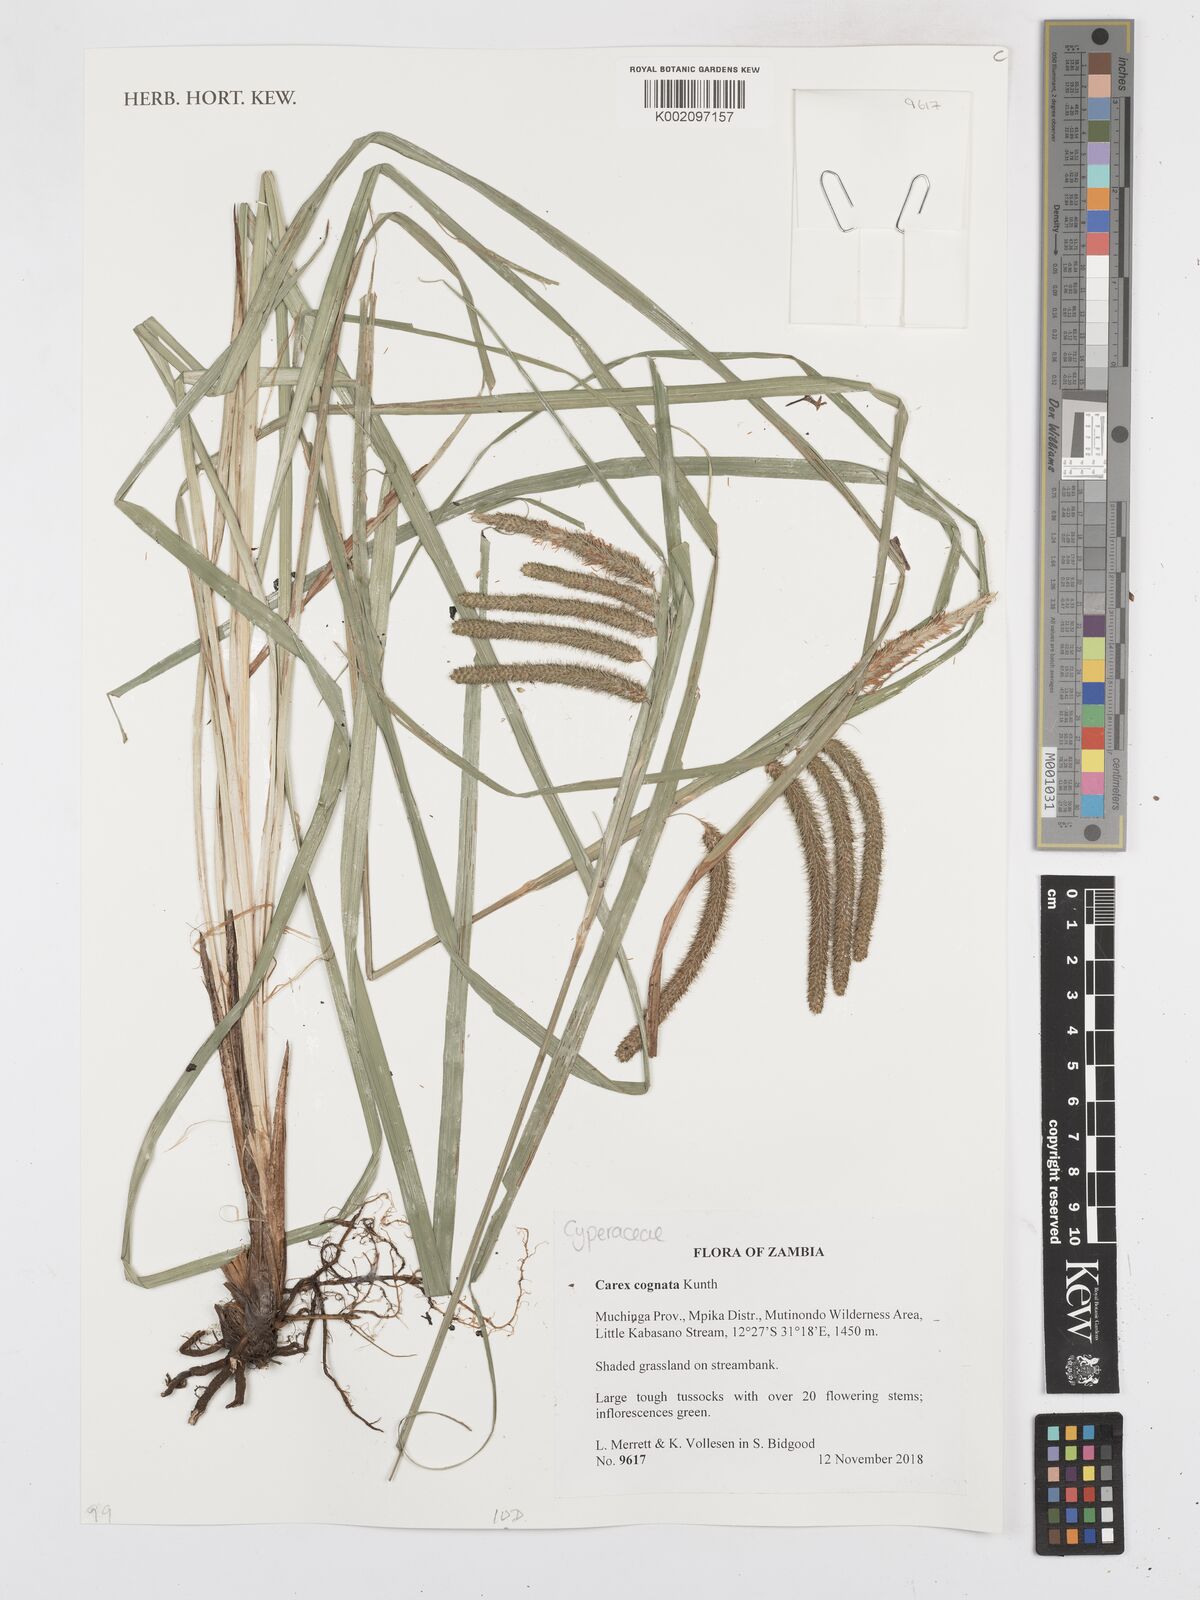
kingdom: Plantae
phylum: Tracheophyta
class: Liliopsida
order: Poales
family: Cyperaceae
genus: Carex
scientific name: Carex congolensis
